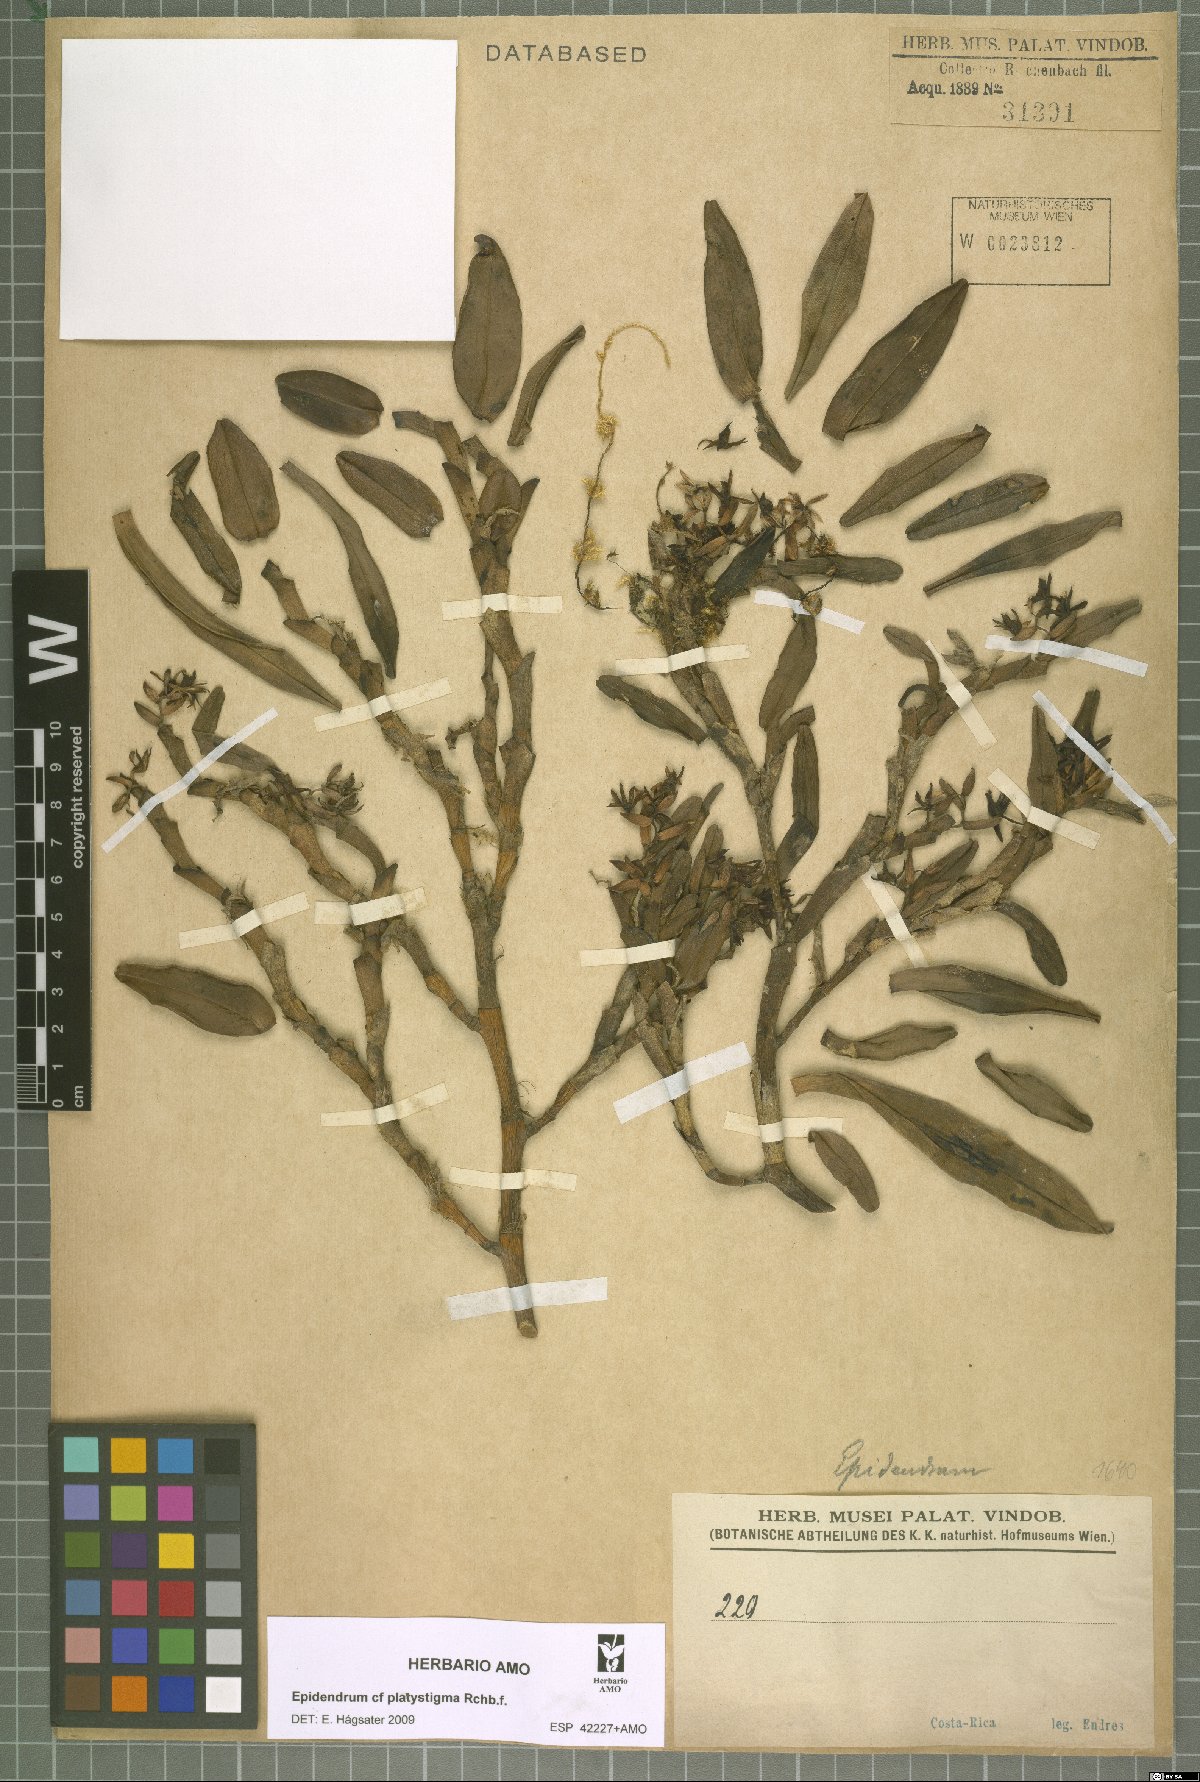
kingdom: Plantae
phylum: Tracheophyta
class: Liliopsida
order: Asparagales
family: Orchidaceae
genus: Epidendrum
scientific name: Epidendrum platystigma
